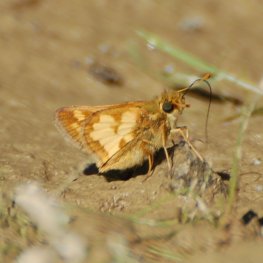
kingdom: Animalia
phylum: Arthropoda
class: Insecta
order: Lepidoptera
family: Hesperiidae
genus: Polites
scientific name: Polites coras
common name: Peck's Skipper
